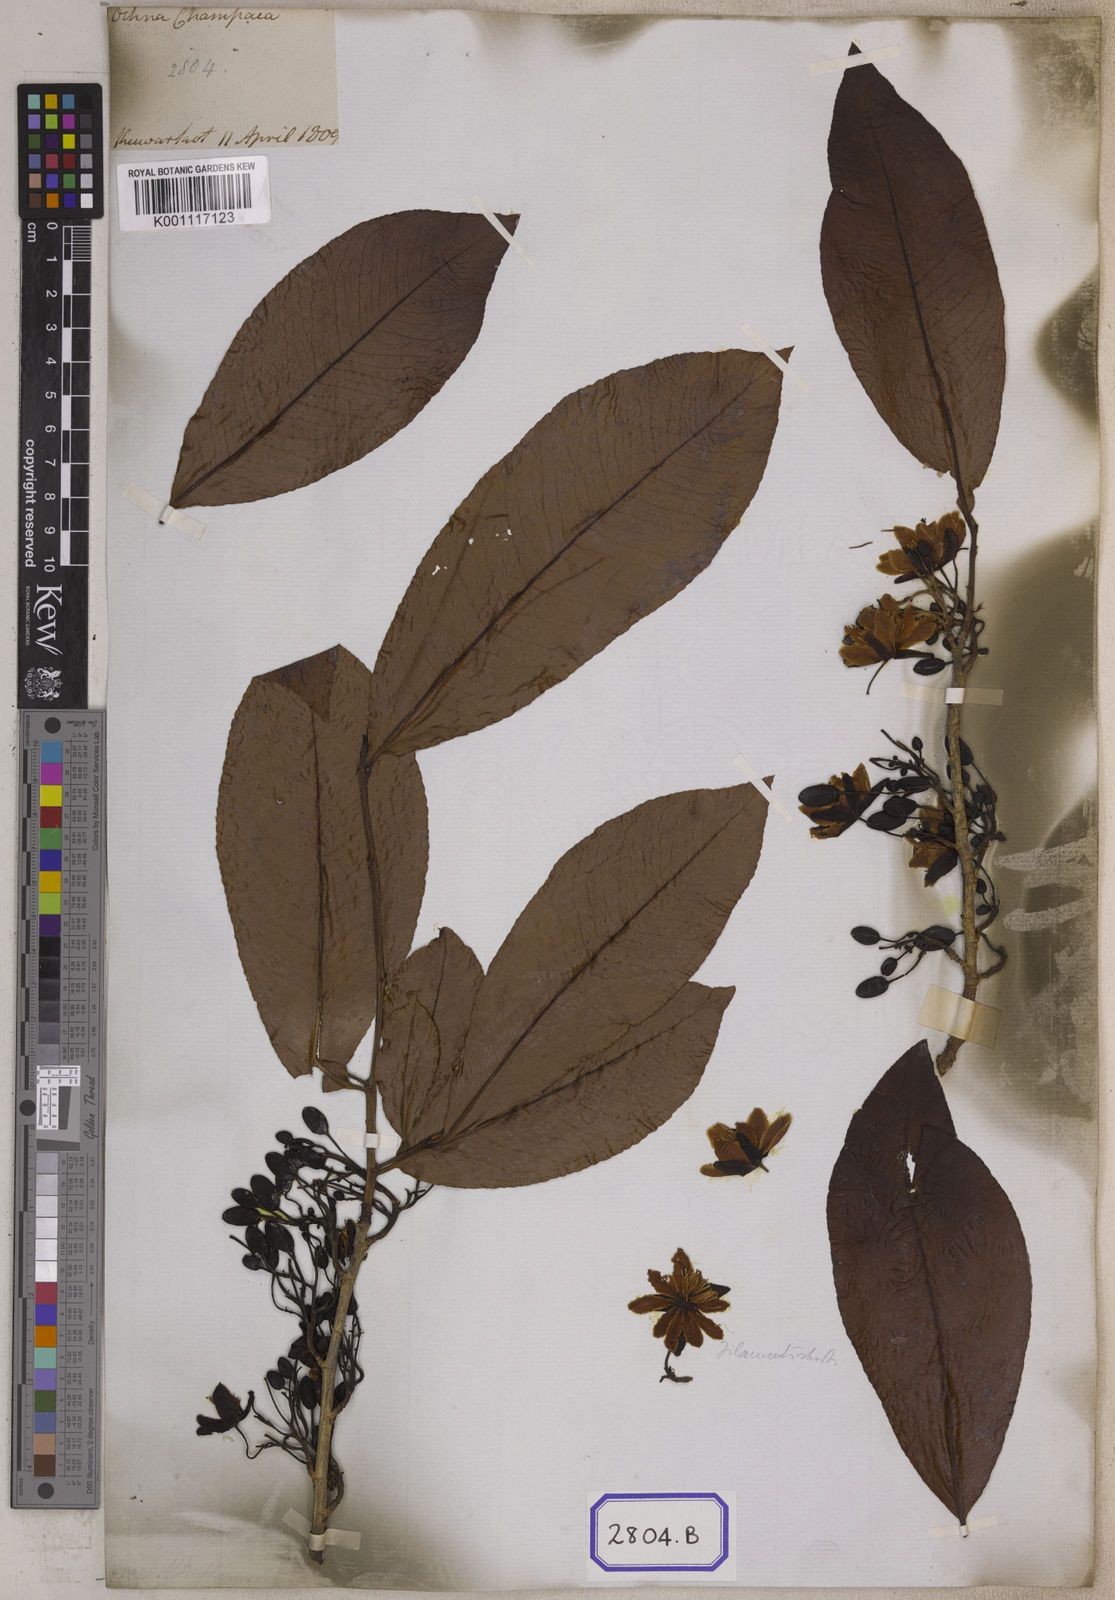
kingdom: Plantae
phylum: Tracheophyta
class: Magnoliopsida
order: Malpighiales
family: Ochnaceae
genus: Ochna
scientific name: Ochna jabotapita
